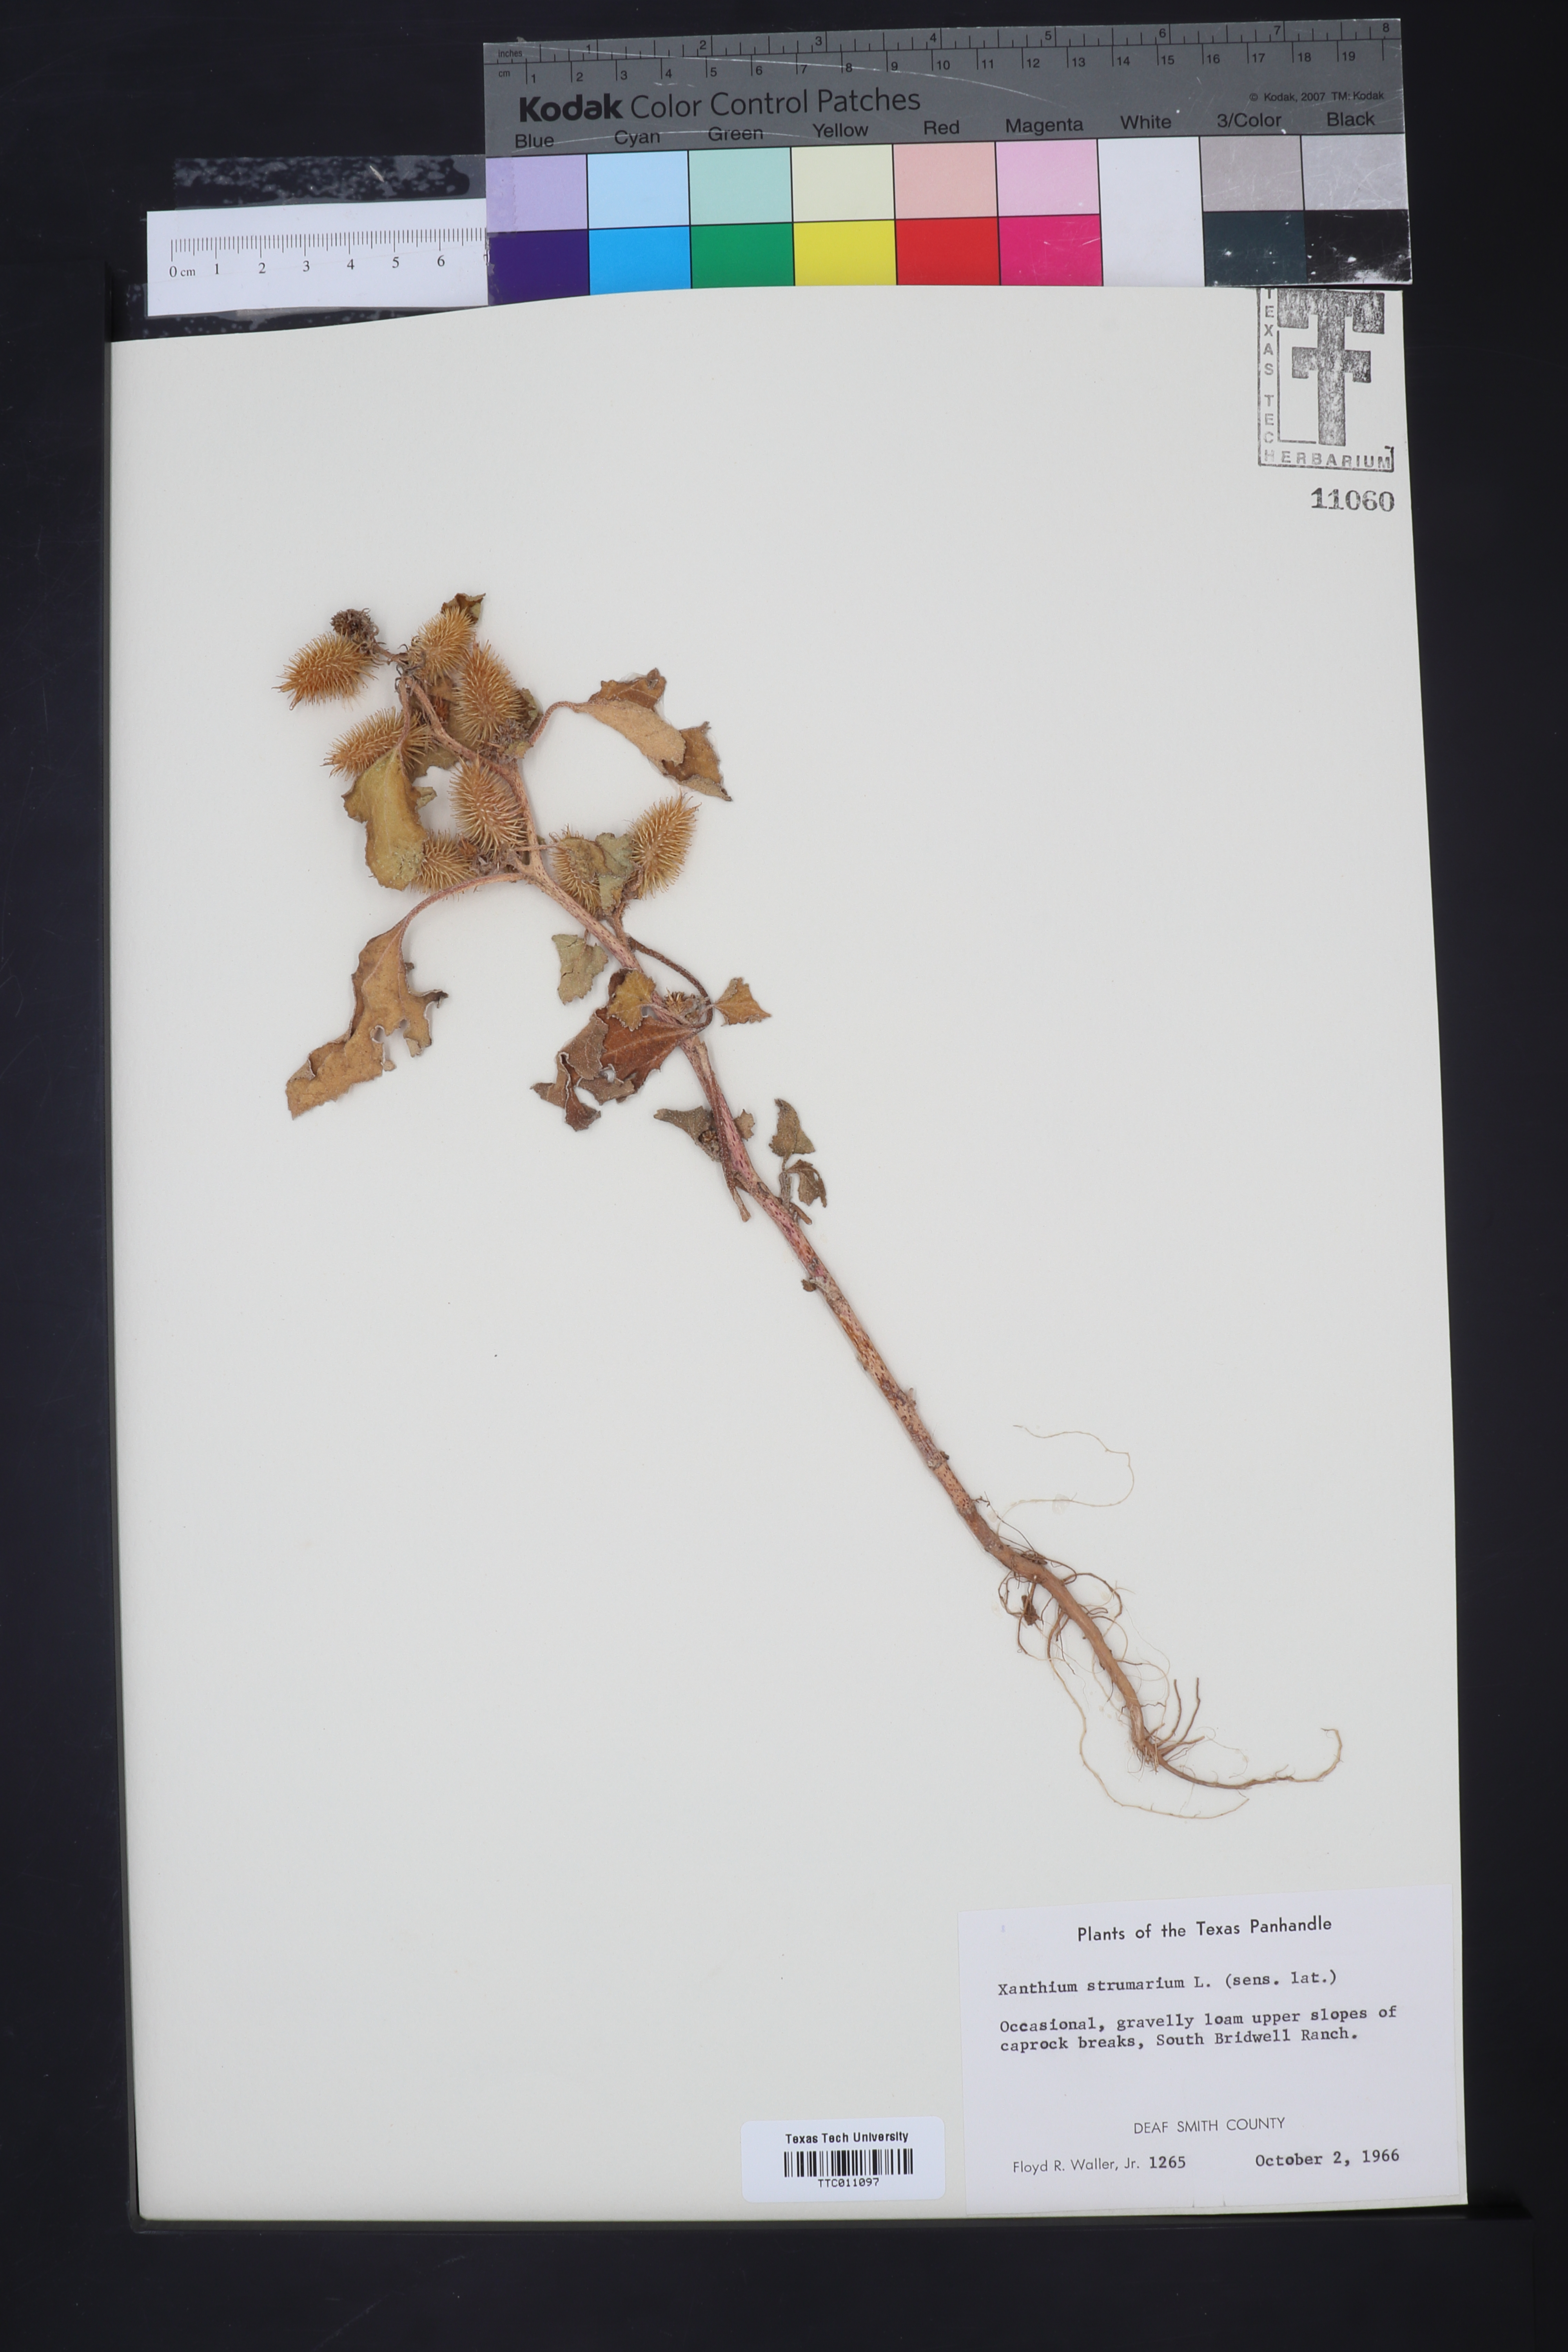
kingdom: Plantae
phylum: Tracheophyta
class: Magnoliopsida
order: Asterales
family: Asteraceae
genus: Xanthium
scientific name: Xanthium strumarium
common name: Rough cocklebur
